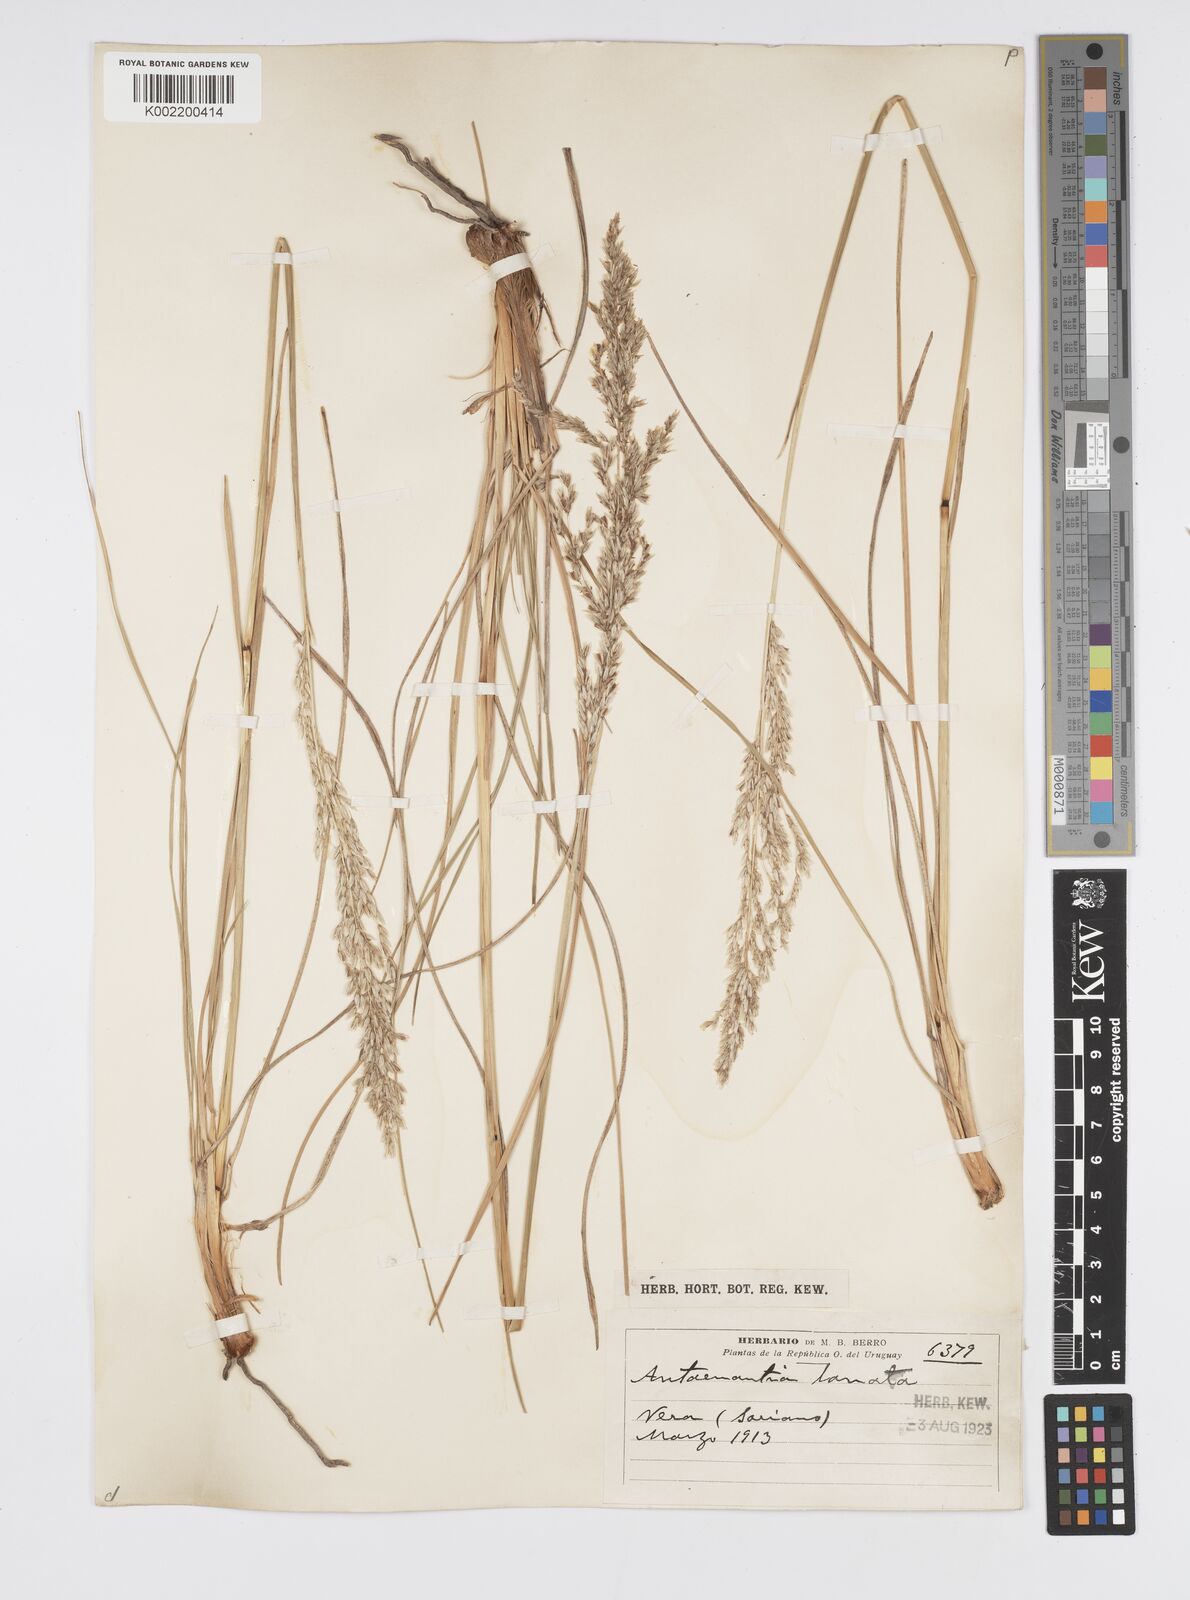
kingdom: Plantae
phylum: Tracheophyta
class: Liliopsida
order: Poales
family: Poaceae
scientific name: Poaceae
